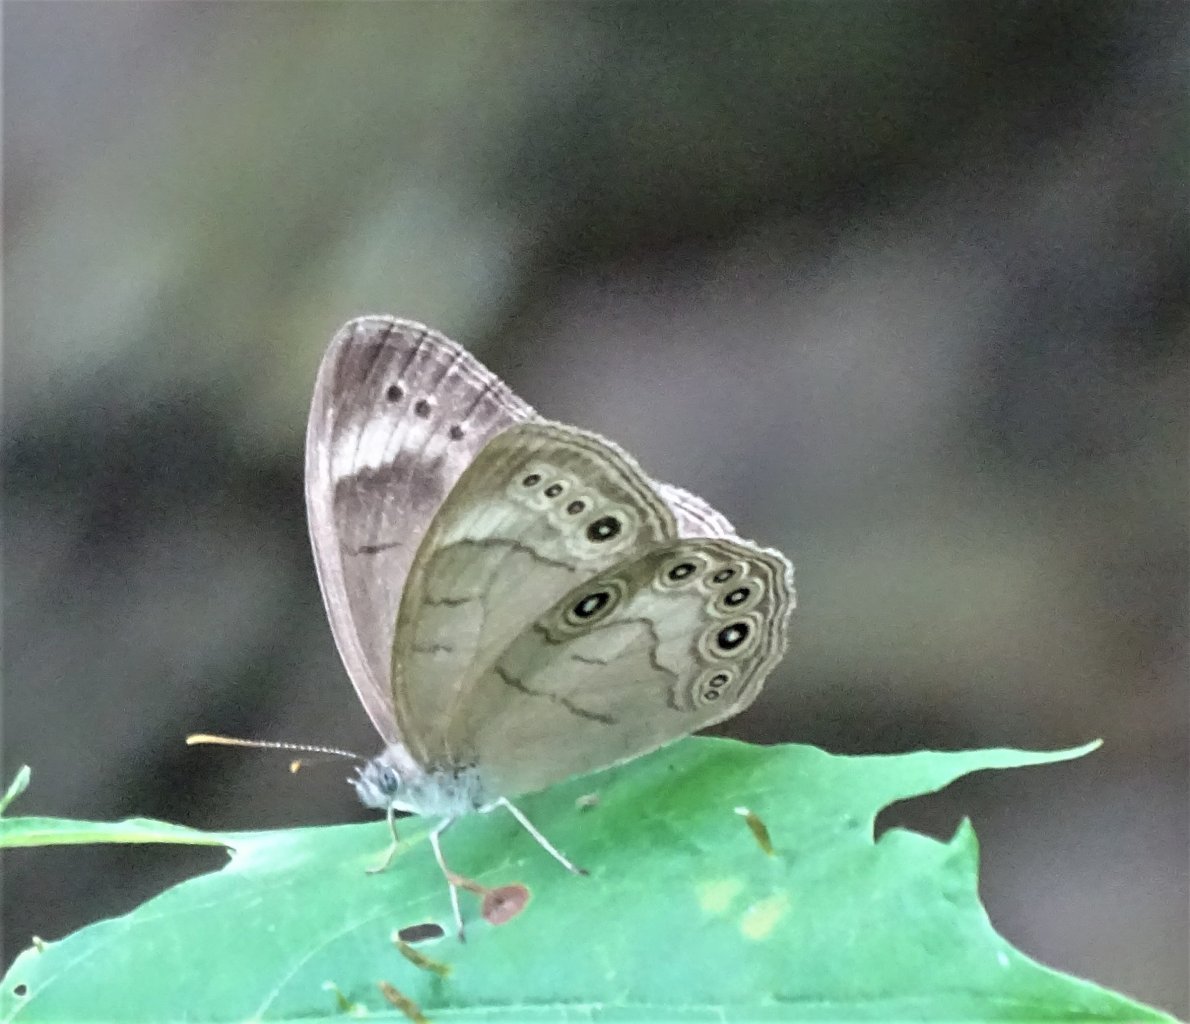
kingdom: Animalia
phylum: Arthropoda
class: Insecta
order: Lepidoptera
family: Nymphalidae
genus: Lethe
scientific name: Lethe eurydice
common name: Appalachian Eyed Brown
